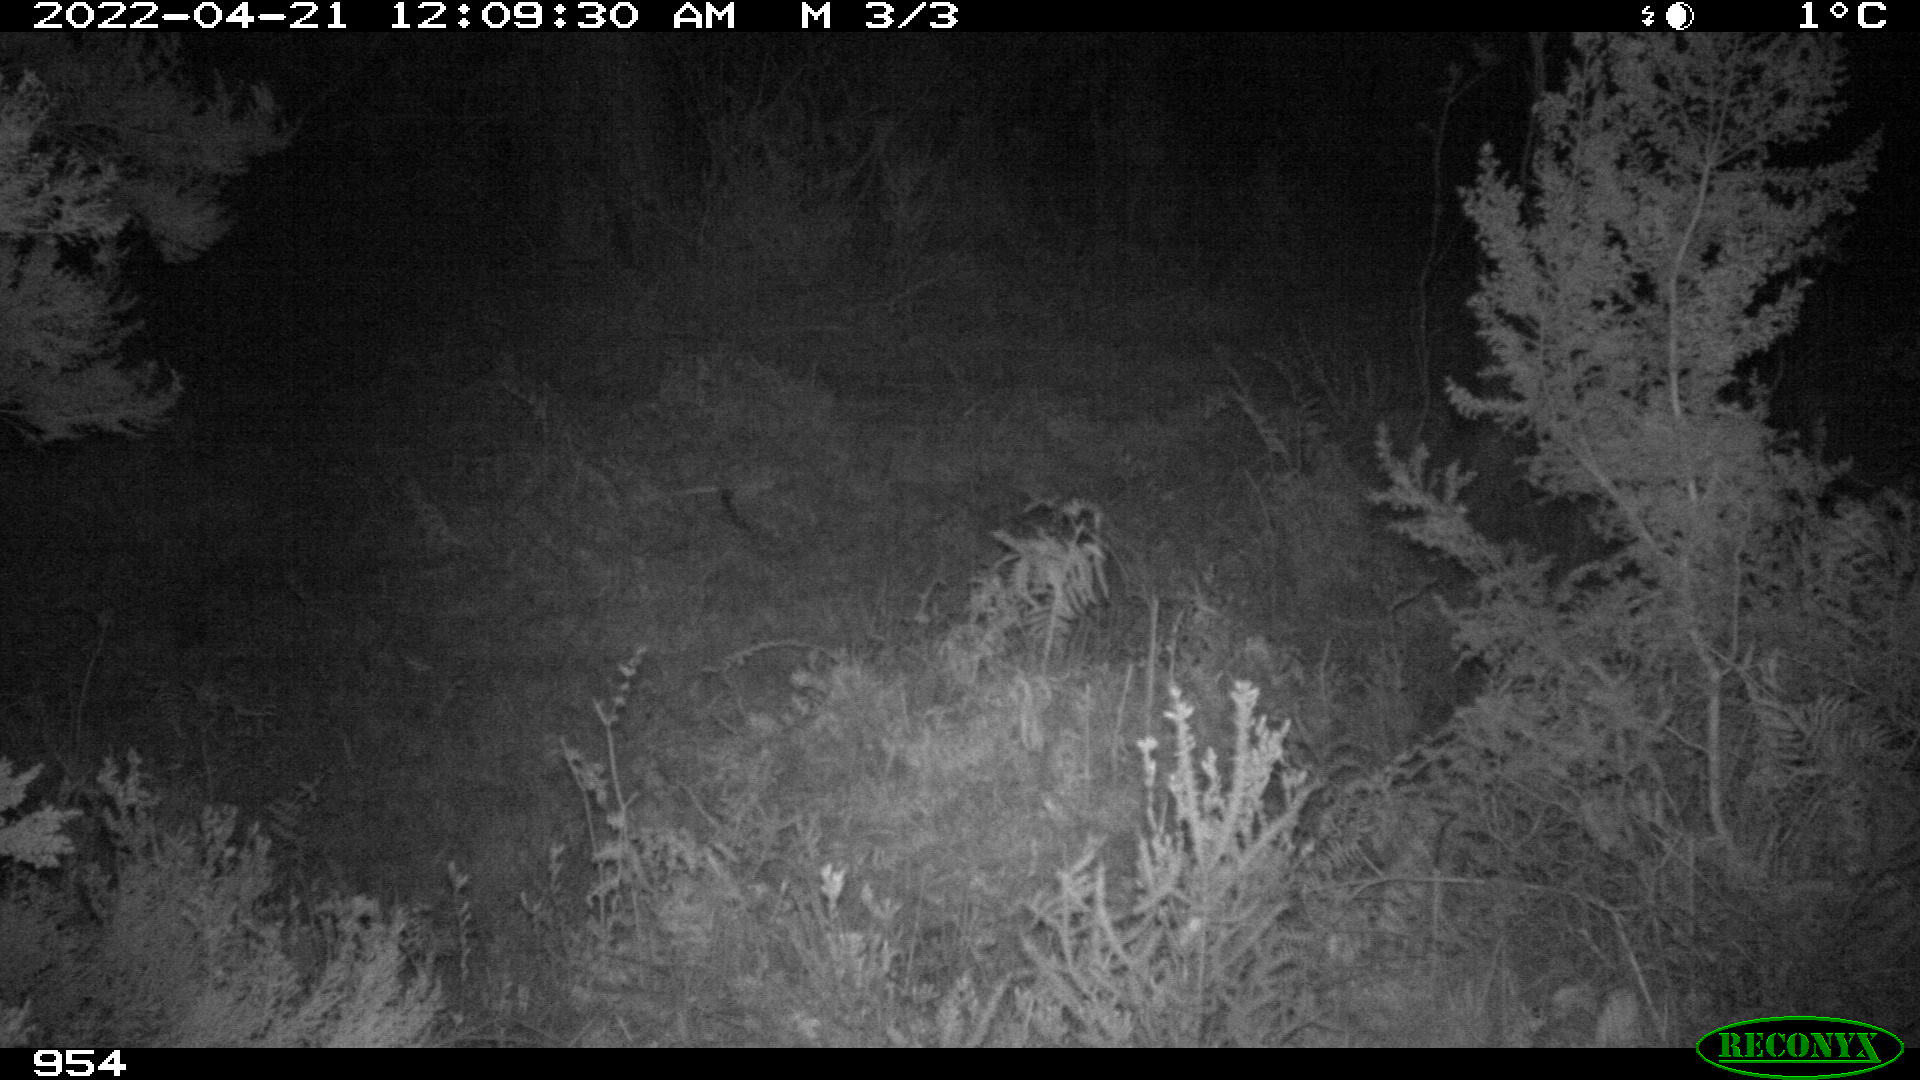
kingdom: Animalia
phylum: Chordata
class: Mammalia
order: Perissodactyla
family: Equidae
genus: Equus
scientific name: Equus caballus
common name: Horse
